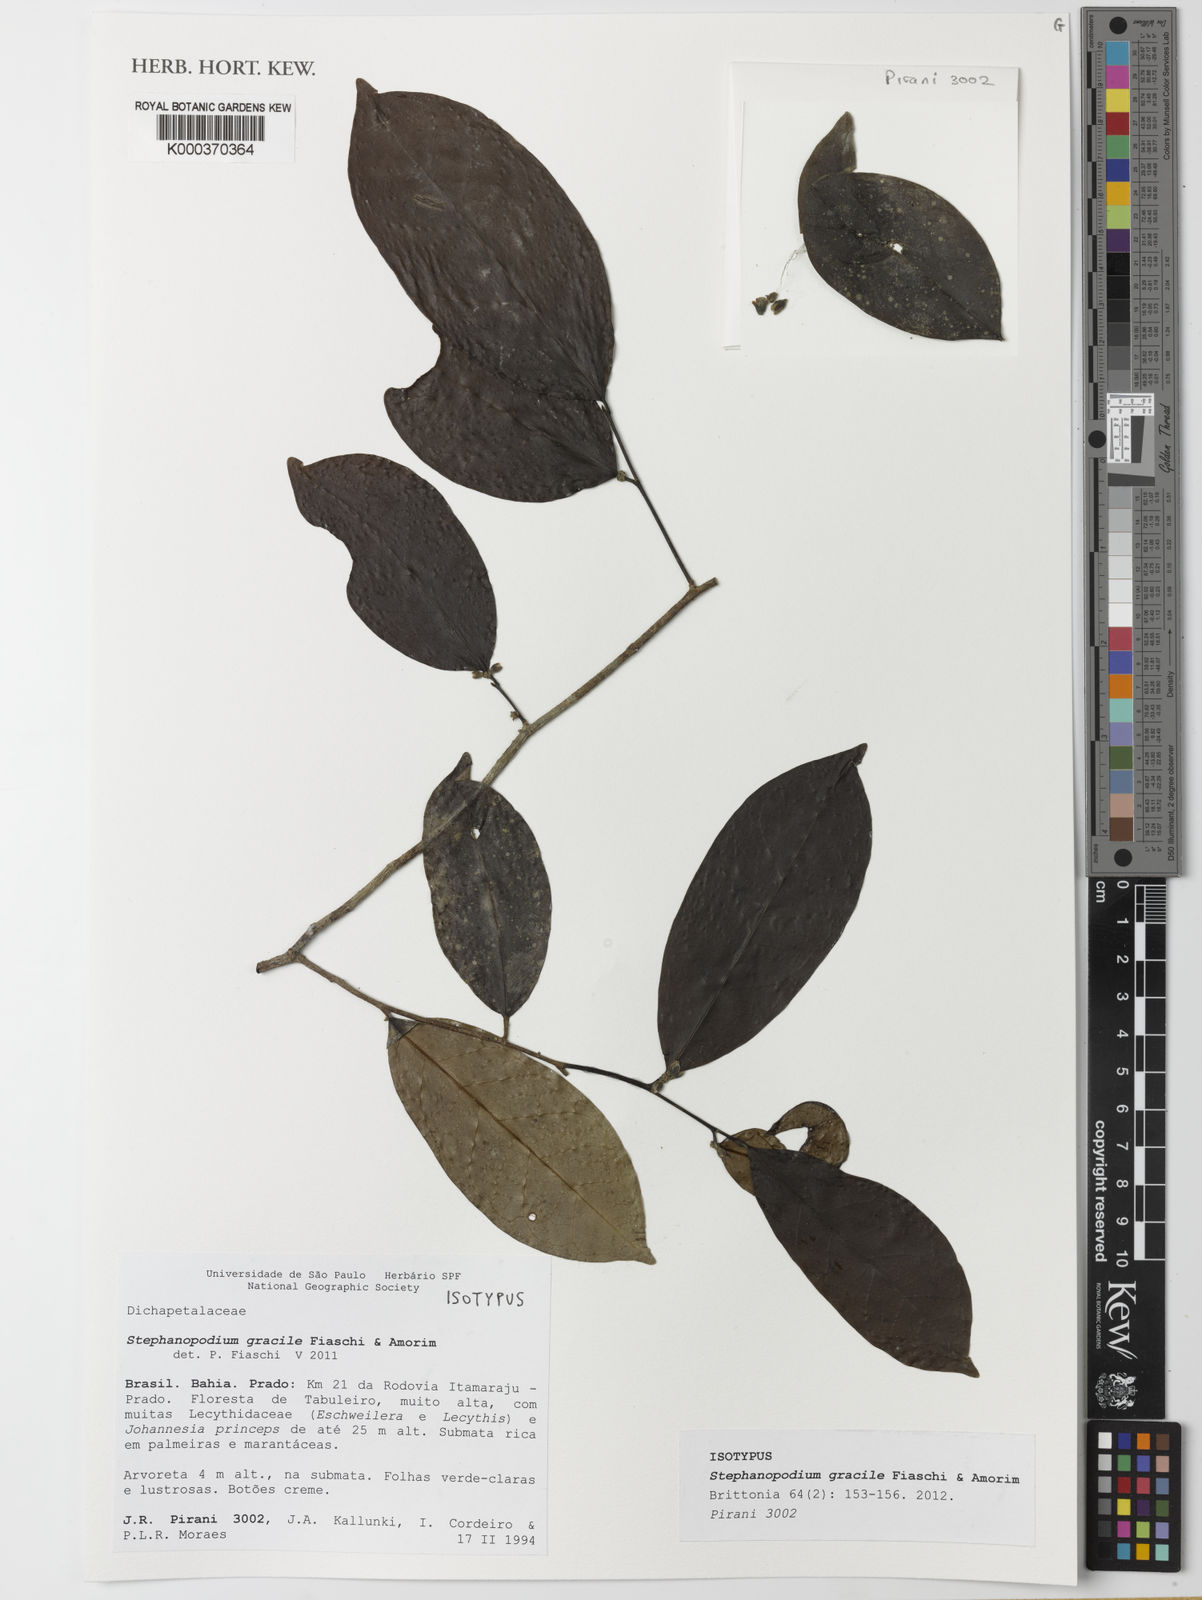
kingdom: Plantae
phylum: Tracheophyta
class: Magnoliopsida
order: Malpighiales
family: Dichapetalaceae
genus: Stephanopodium
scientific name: Stephanopodium gracile
